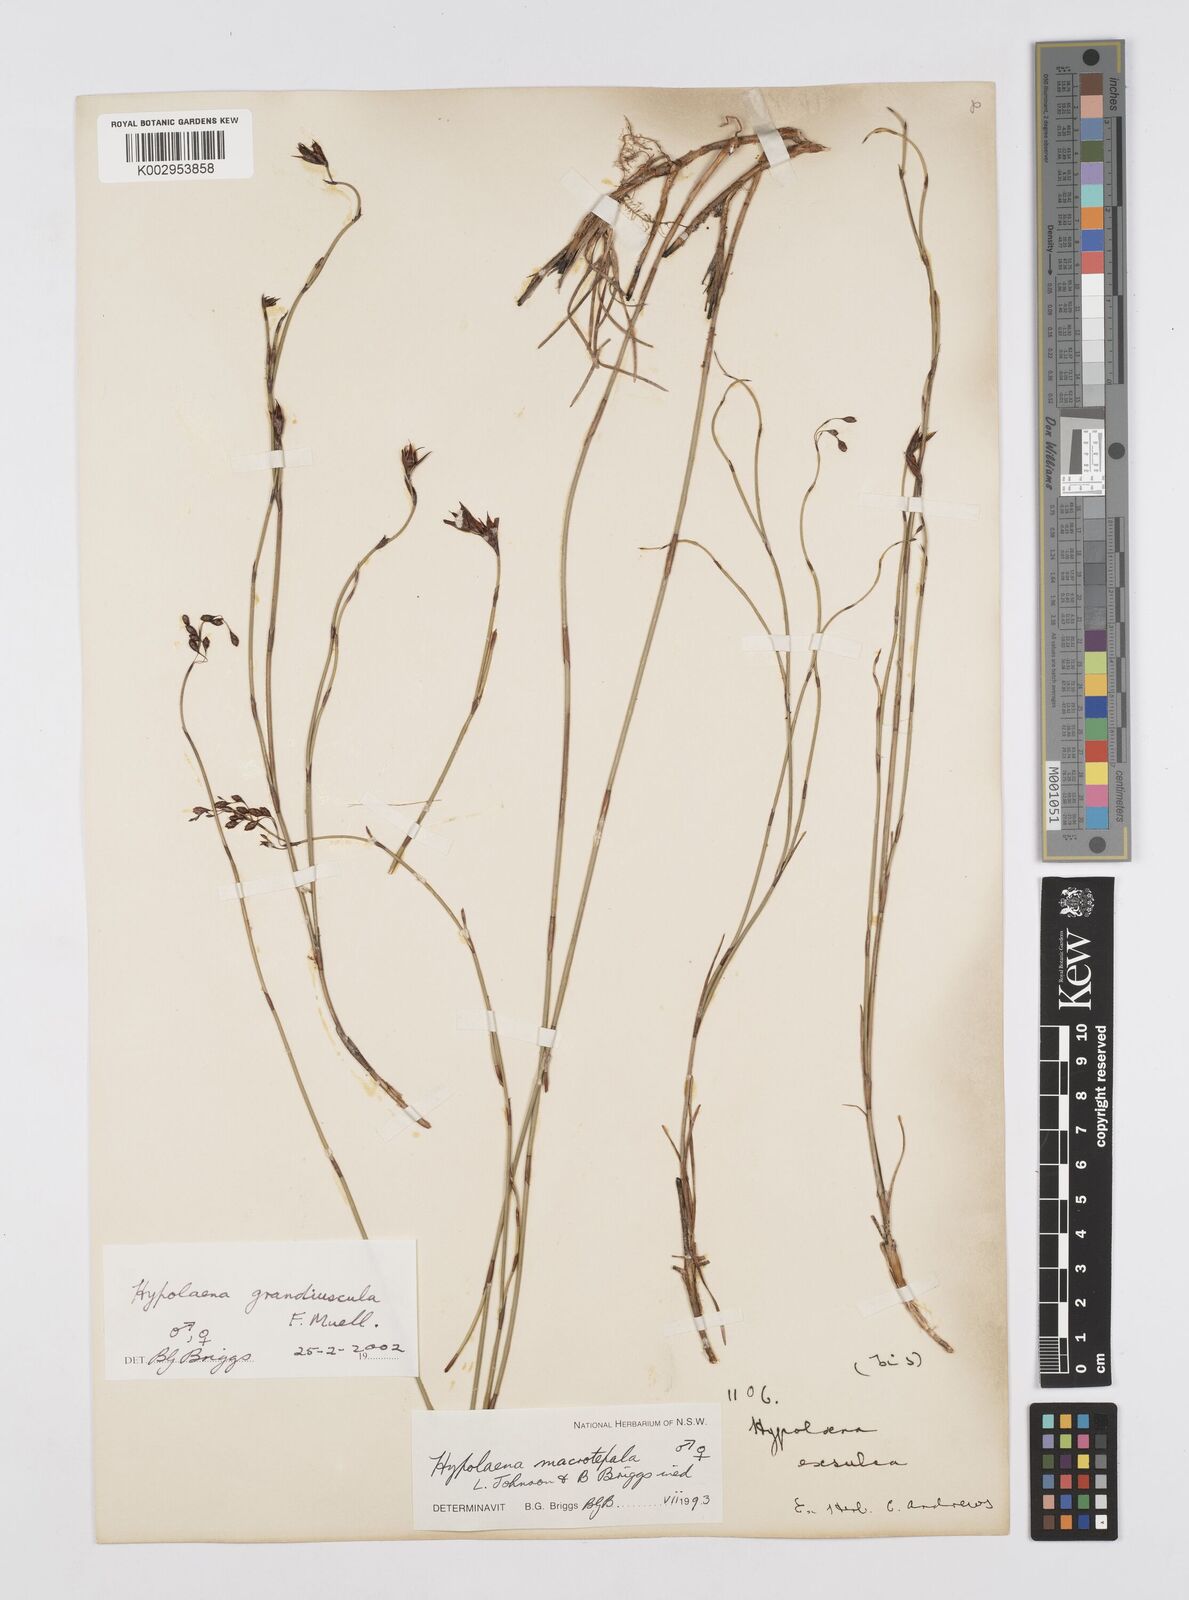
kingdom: Plantae
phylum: Tracheophyta
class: Liliopsida
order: Poales
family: Restionaceae
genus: Hypolaena
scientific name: Hypolaena exsulca
